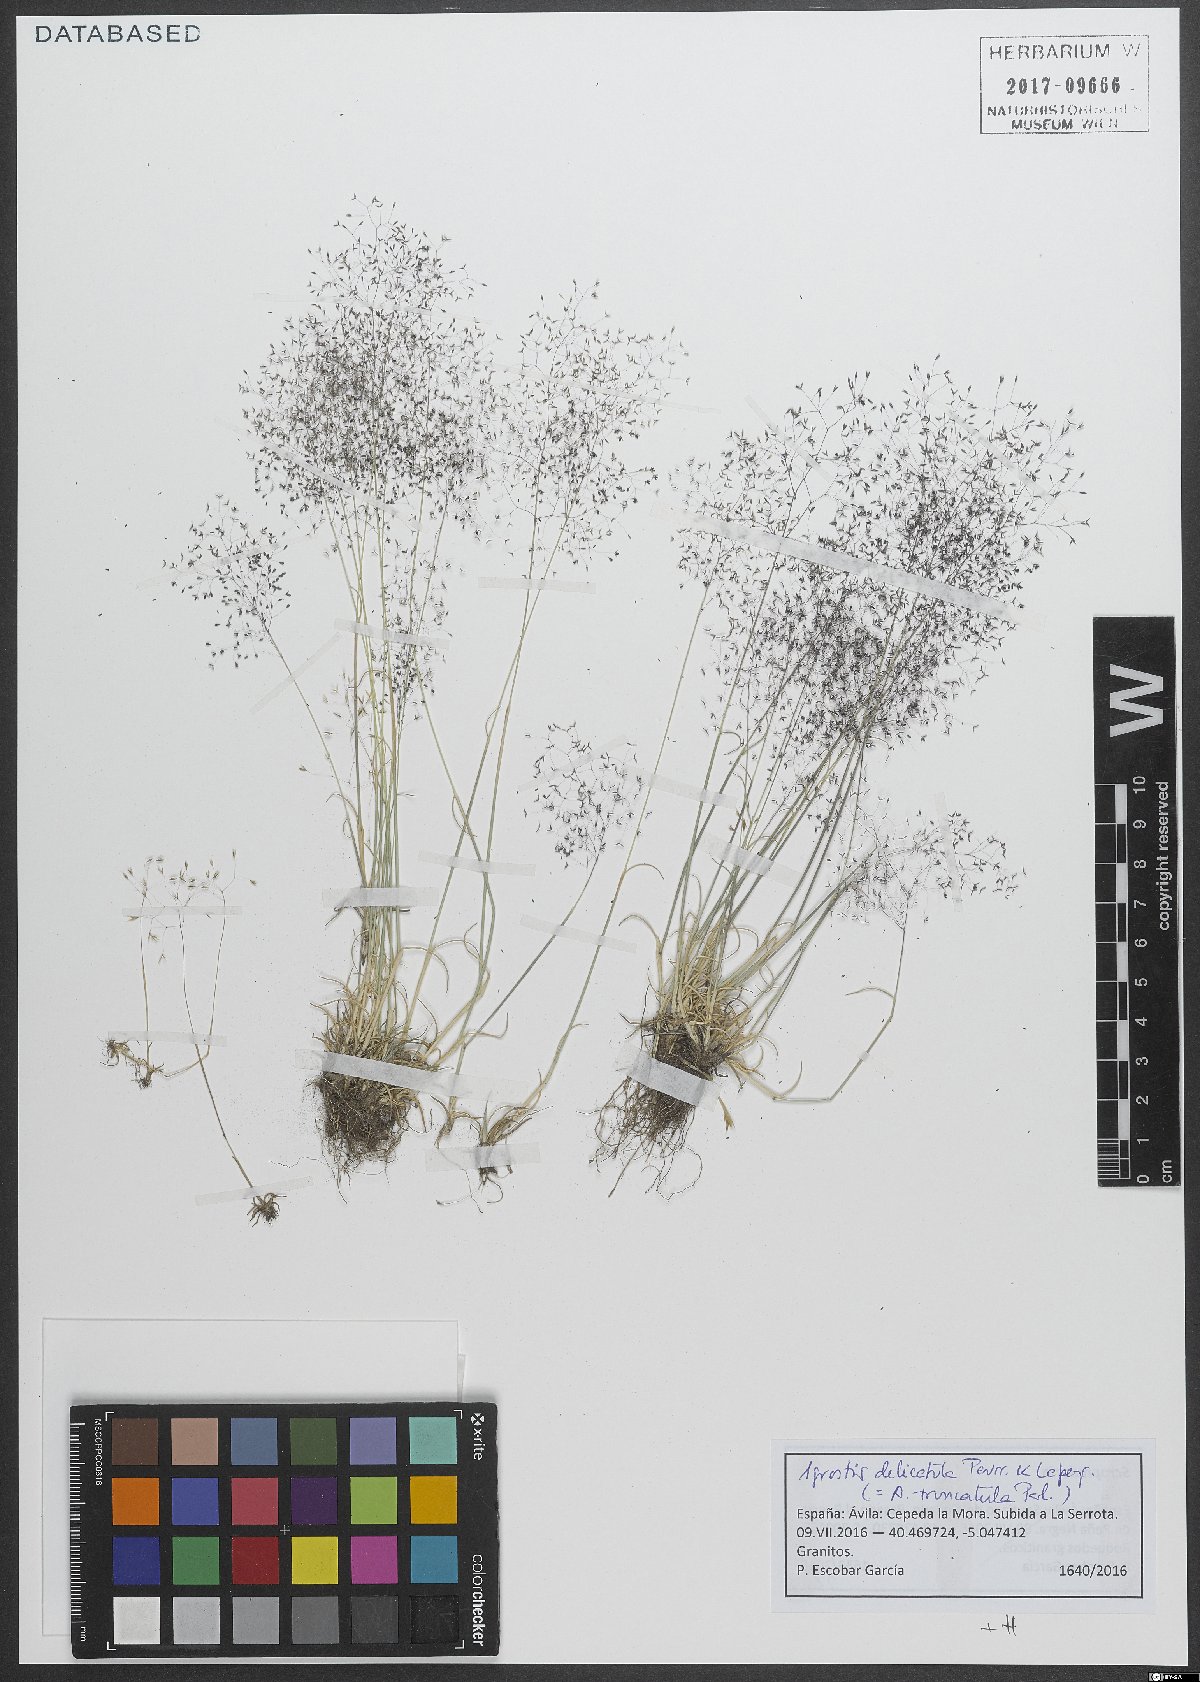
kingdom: Plantae
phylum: Tracheophyta
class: Liliopsida
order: Poales
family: Poaceae
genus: Agrostis
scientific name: Agrostis castellana
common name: Highland bent
